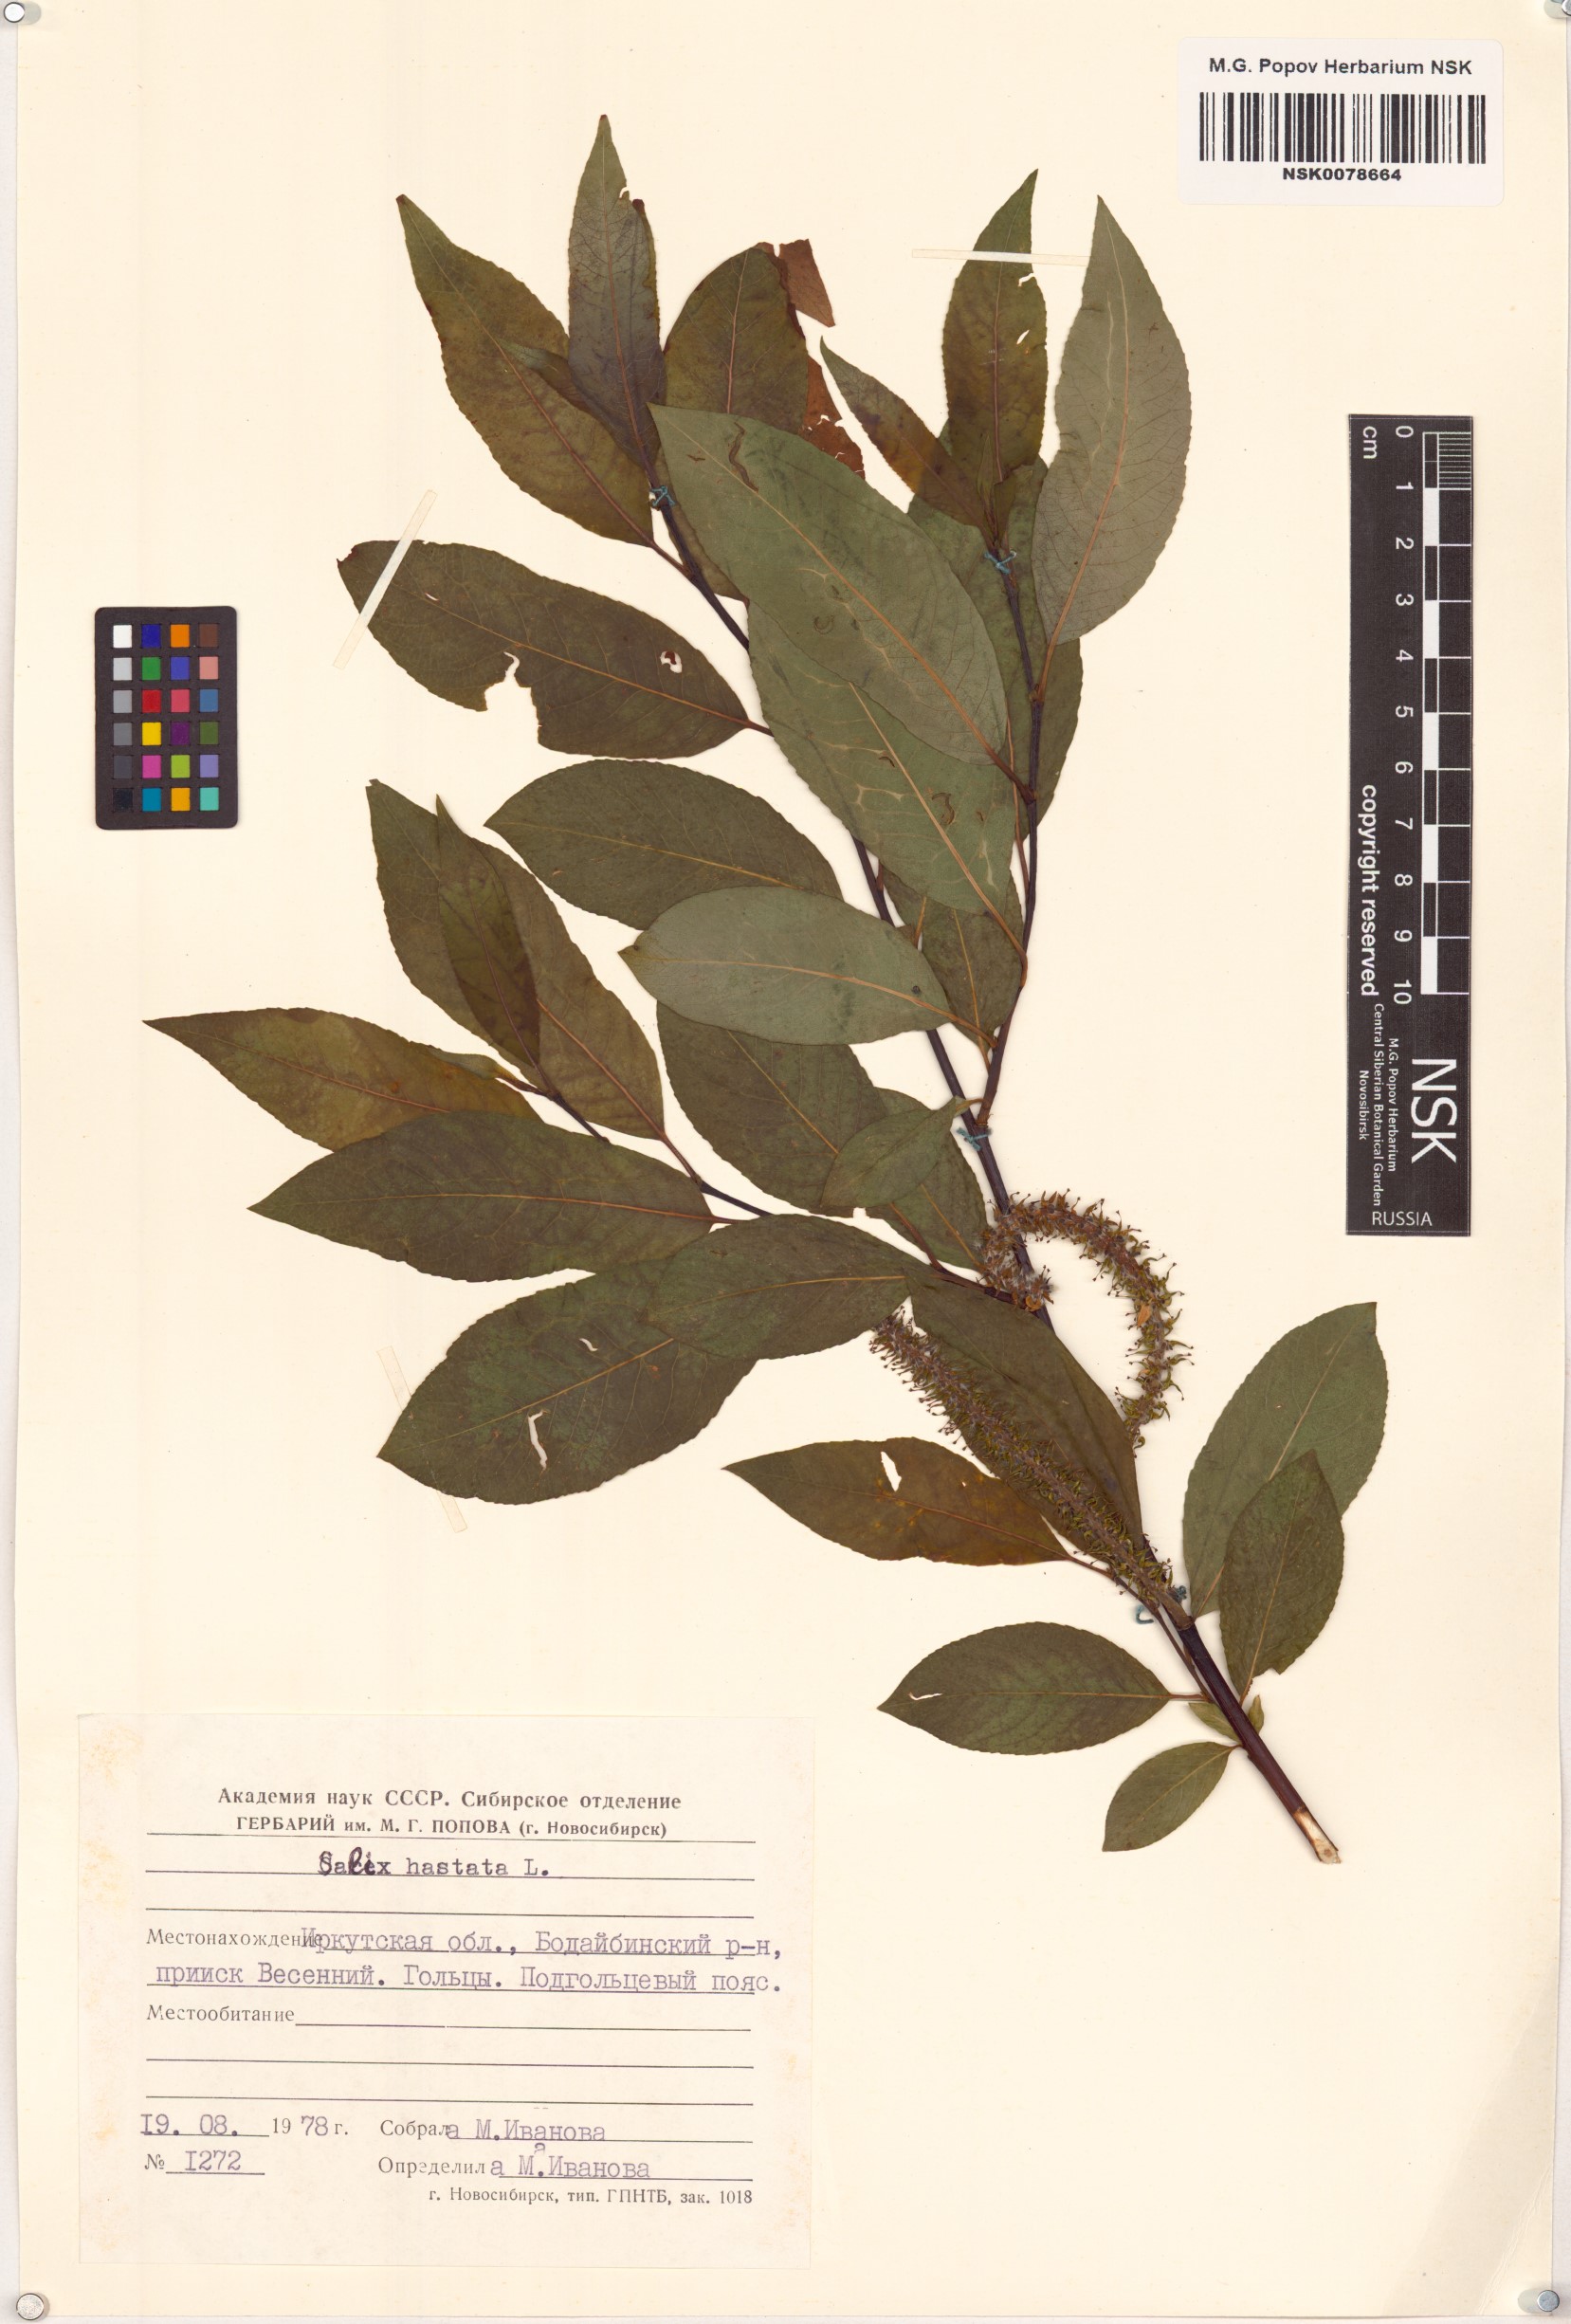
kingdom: Plantae
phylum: Tracheophyta
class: Magnoliopsida
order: Malpighiales
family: Salicaceae
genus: Salix
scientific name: Salix hastata
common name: Halberd willow
